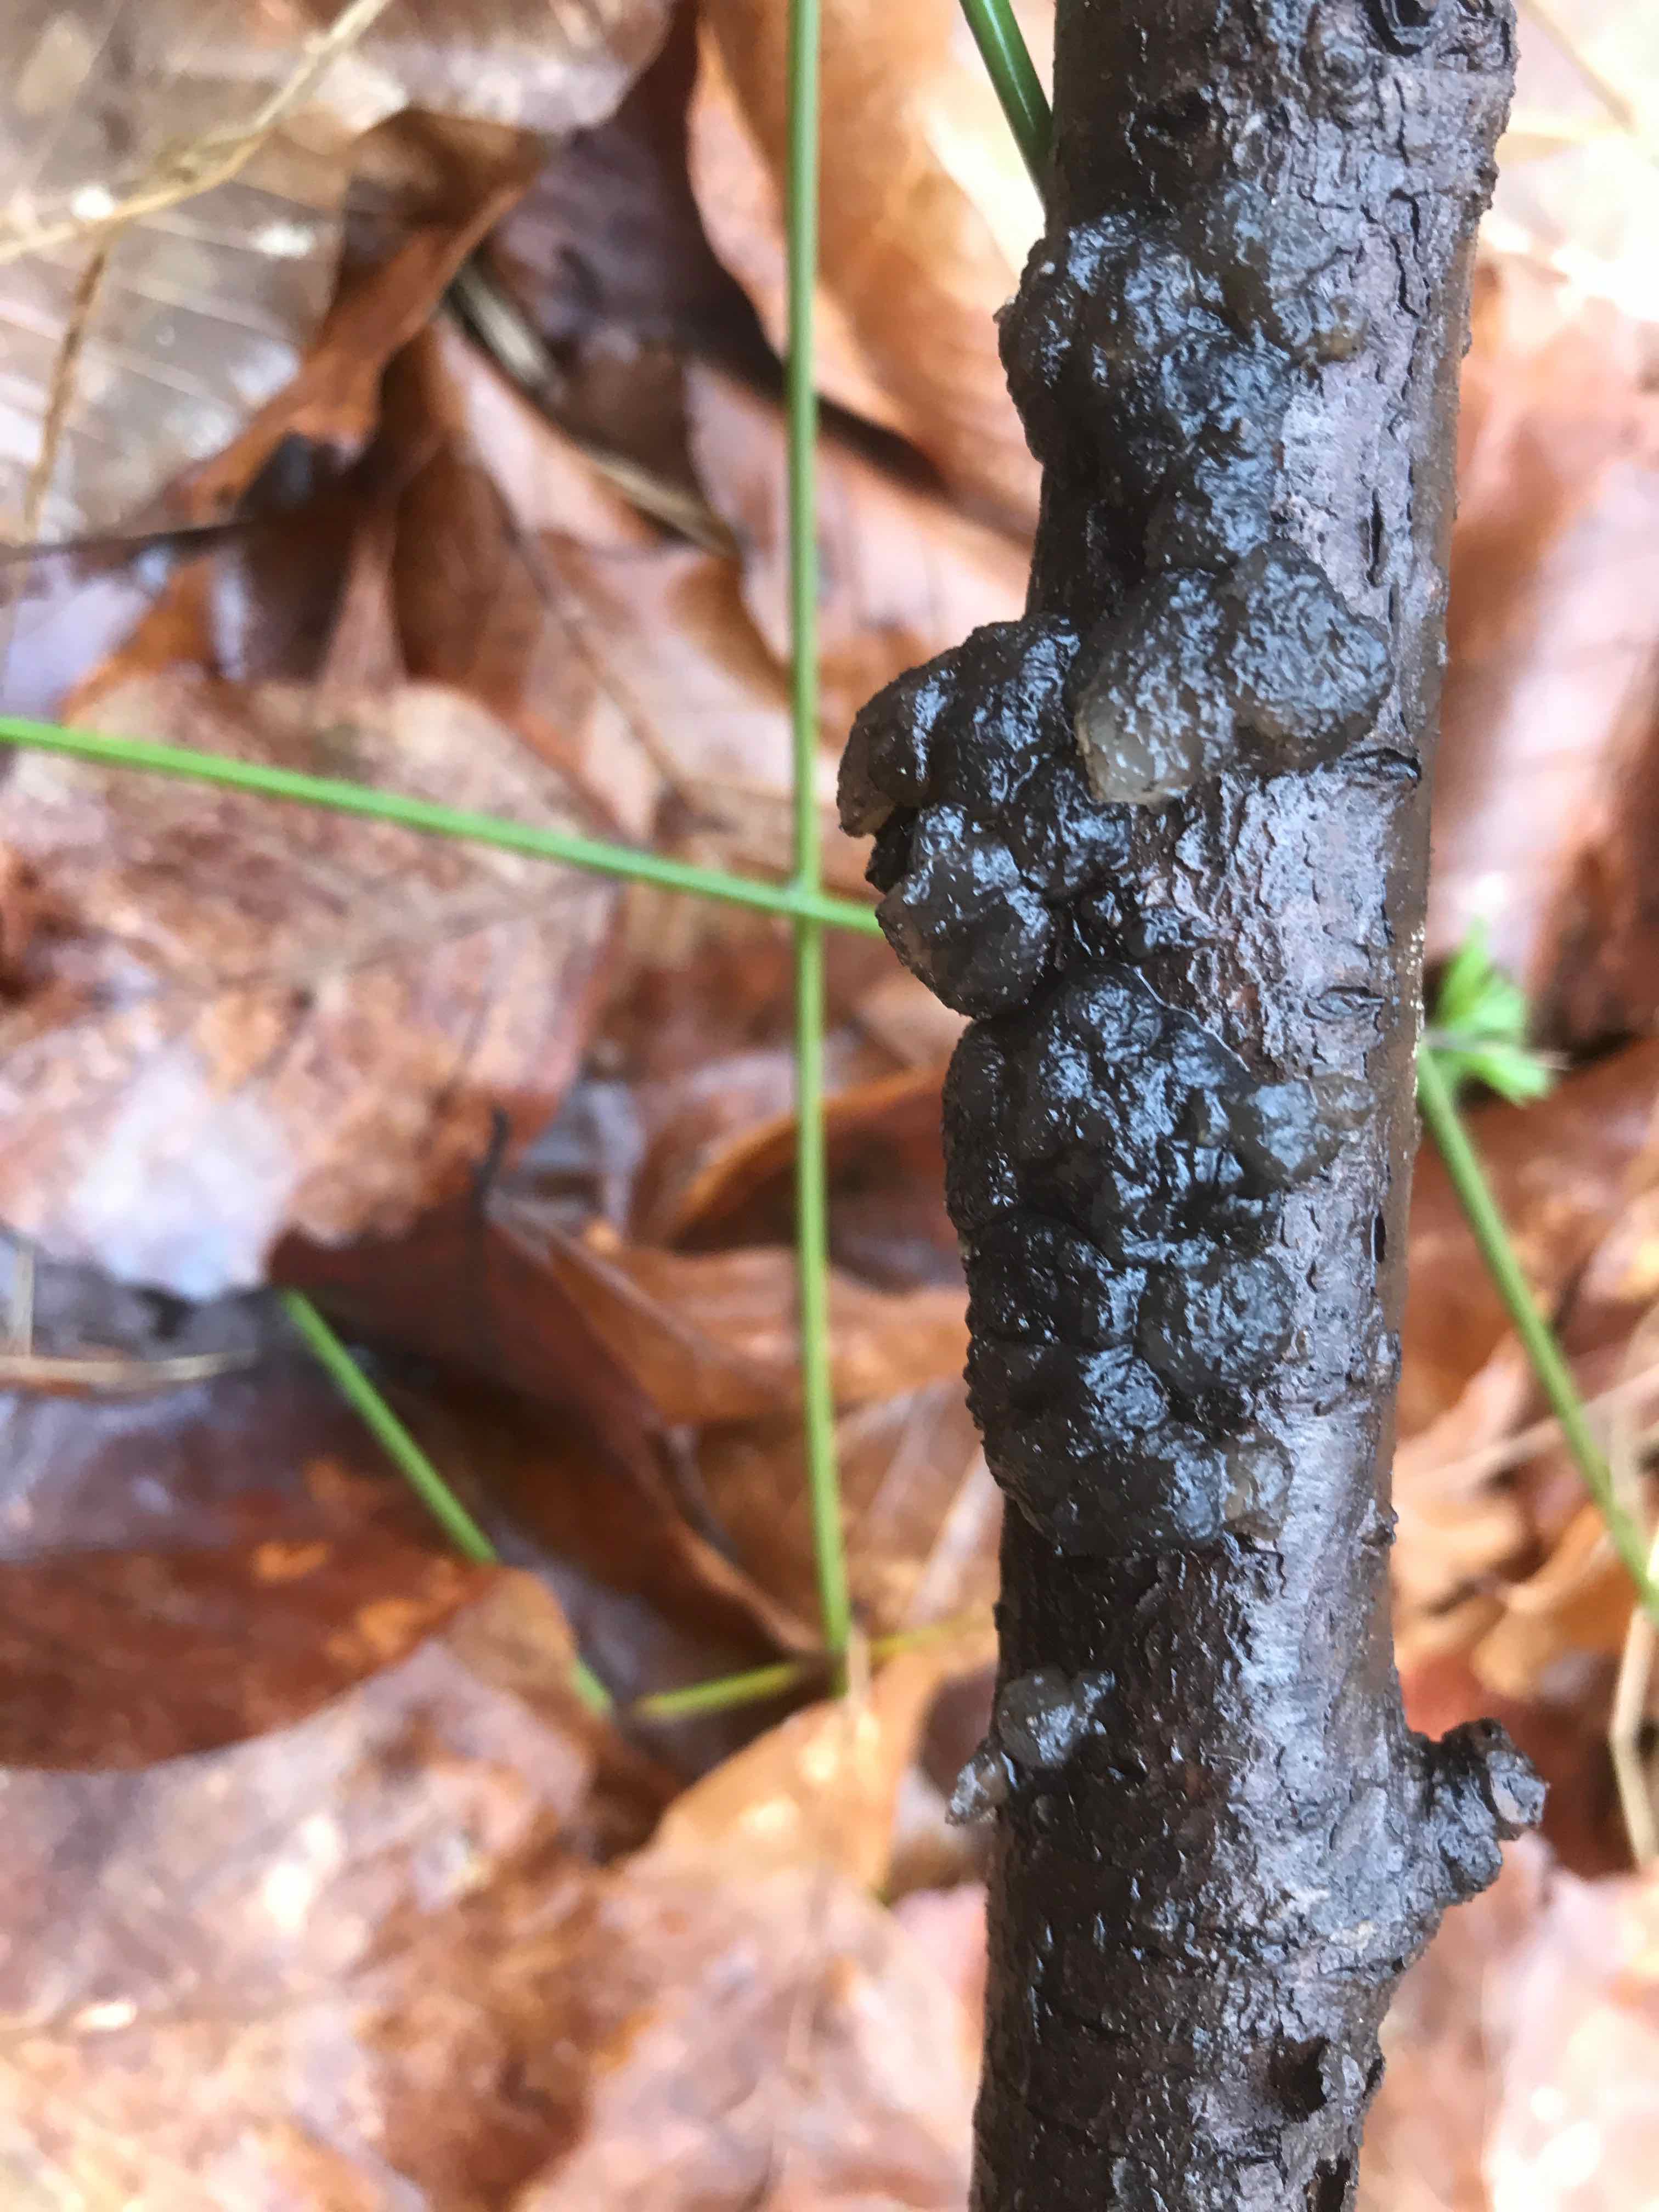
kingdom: Fungi
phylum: Basidiomycota
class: Agaricomycetes
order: Auriculariales
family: Auriculariaceae
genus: Exidia
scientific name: Exidia nigricans
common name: almindelig bævretop
